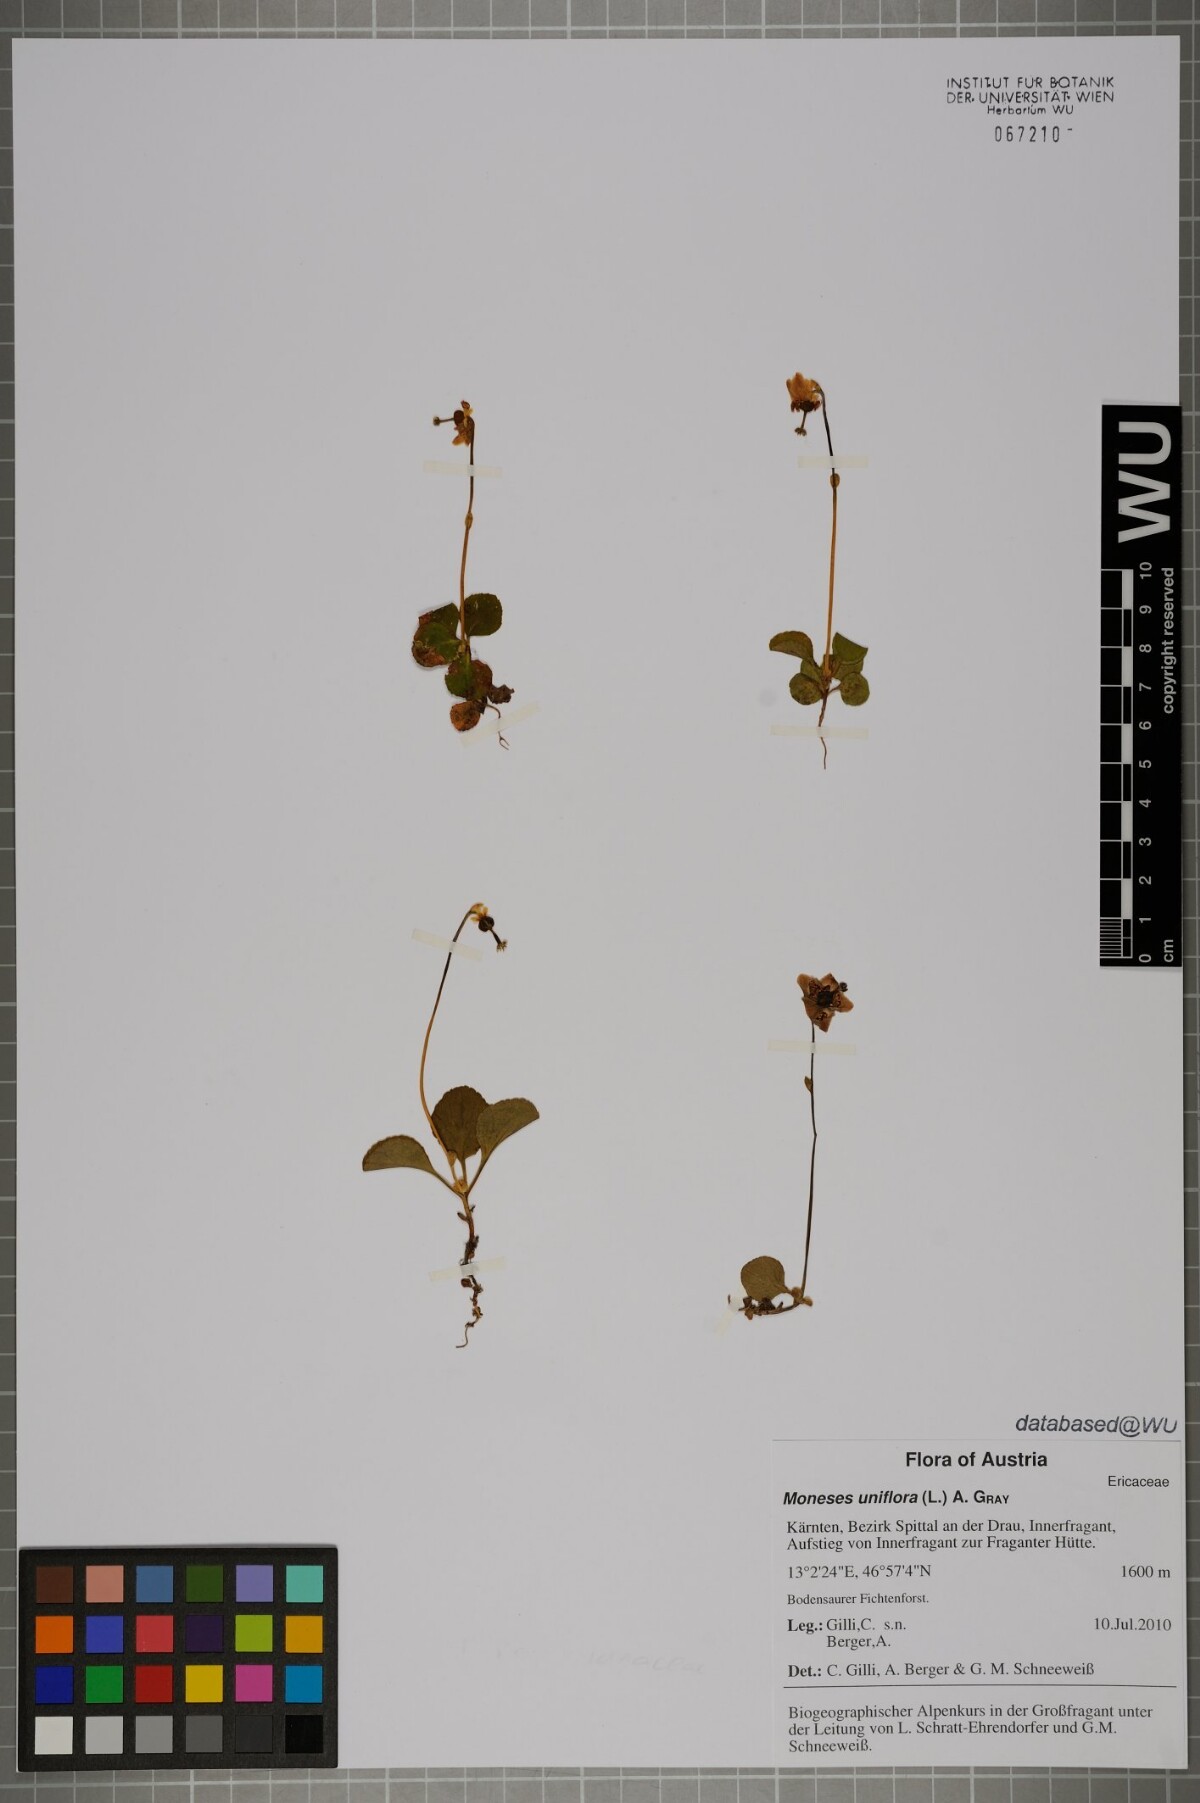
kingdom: Plantae
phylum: Tracheophyta
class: Magnoliopsida
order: Ericales
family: Ericaceae
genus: Moneses
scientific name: Moneses uniflora
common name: One-flowered wintergreen
